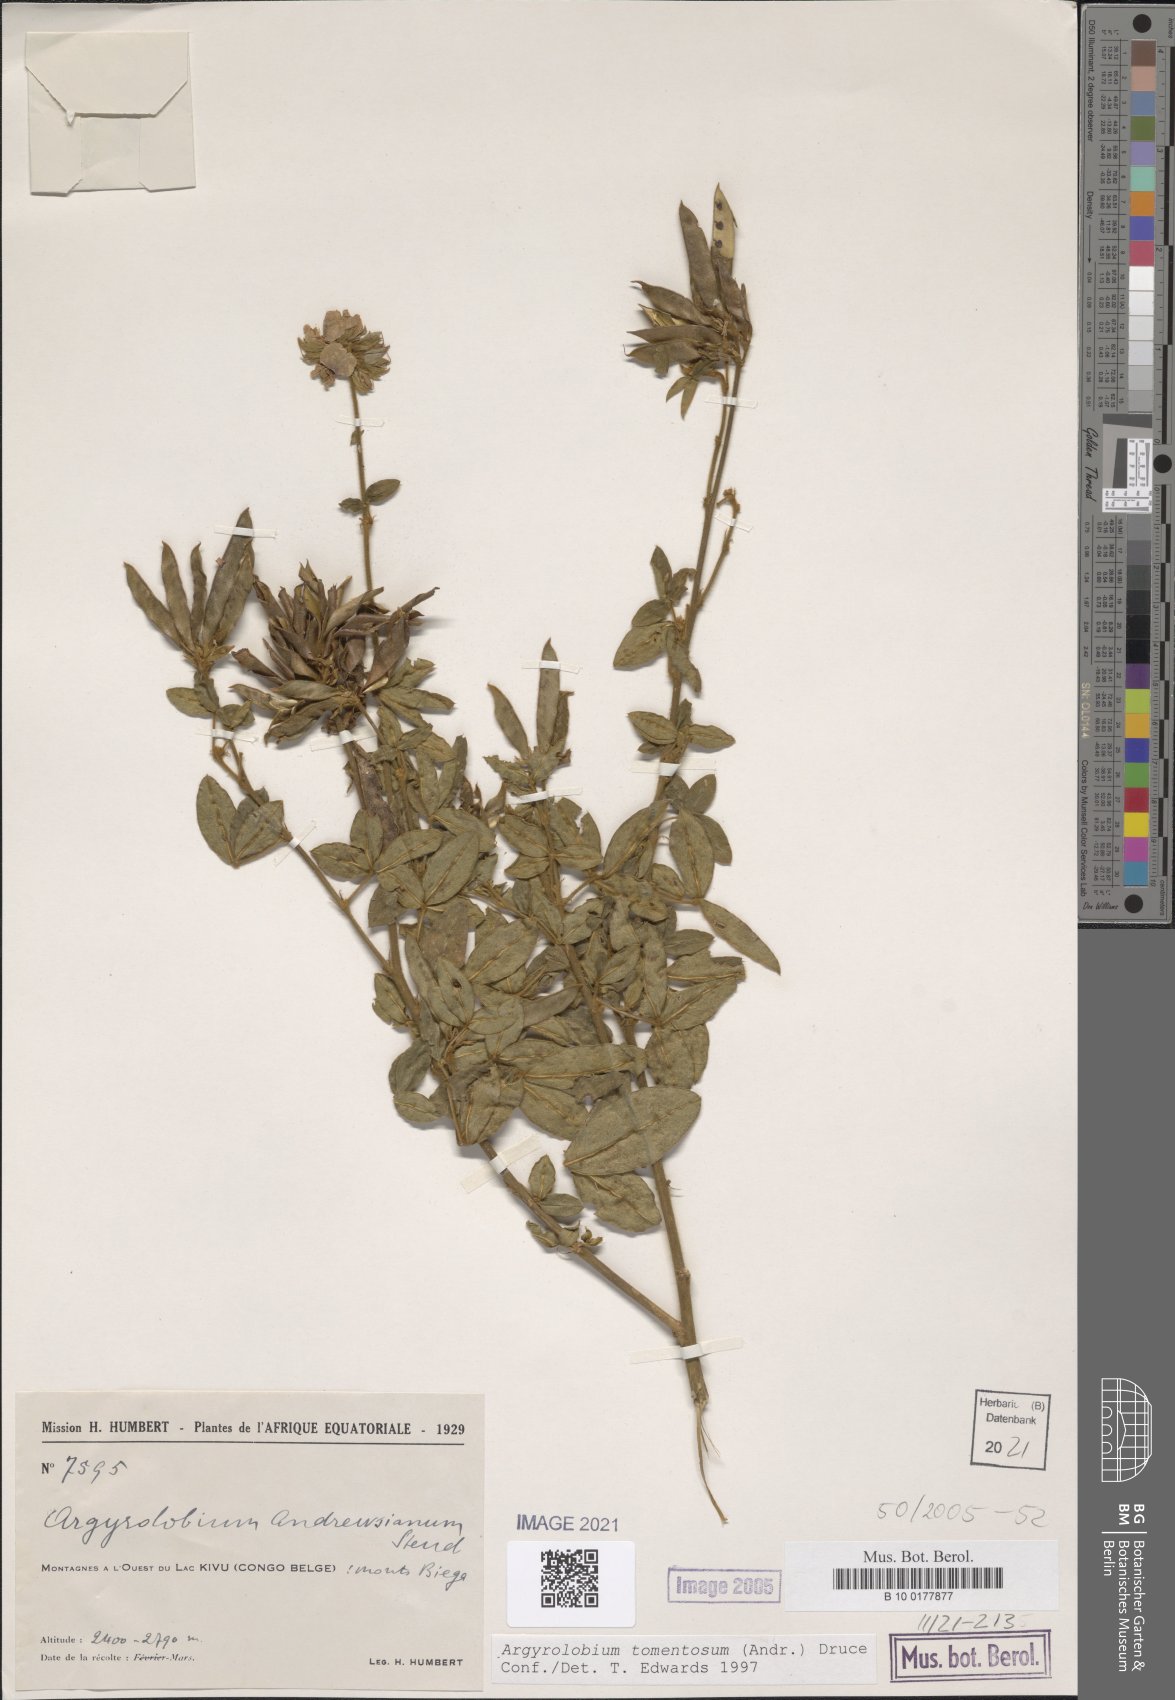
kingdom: Plantae
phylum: Tracheophyta
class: Magnoliopsida
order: Fabales
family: Fabaceae
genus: Argyrolobium
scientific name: Argyrolobium tomentosum
